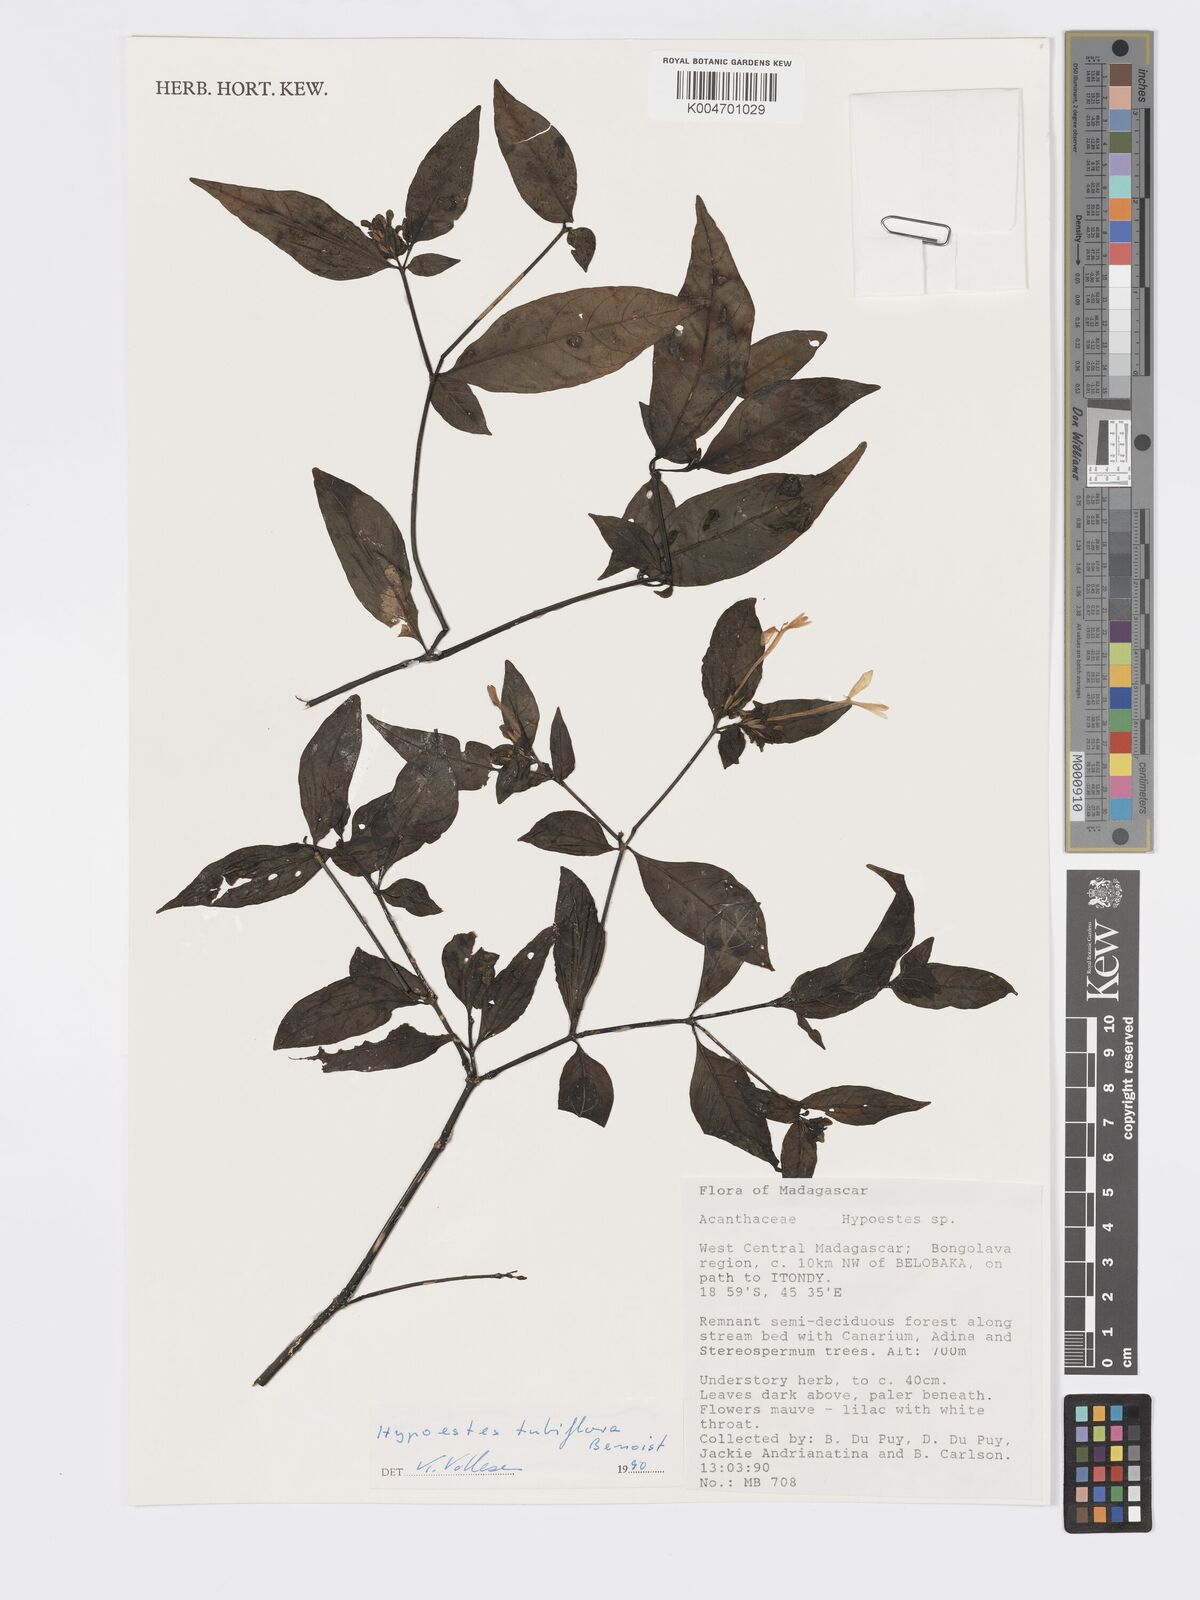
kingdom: Plantae
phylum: Tracheophyta
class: Magnoliopsida
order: Lamiales
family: Acanthaceae
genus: Hypoestes
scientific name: Hypoestes
